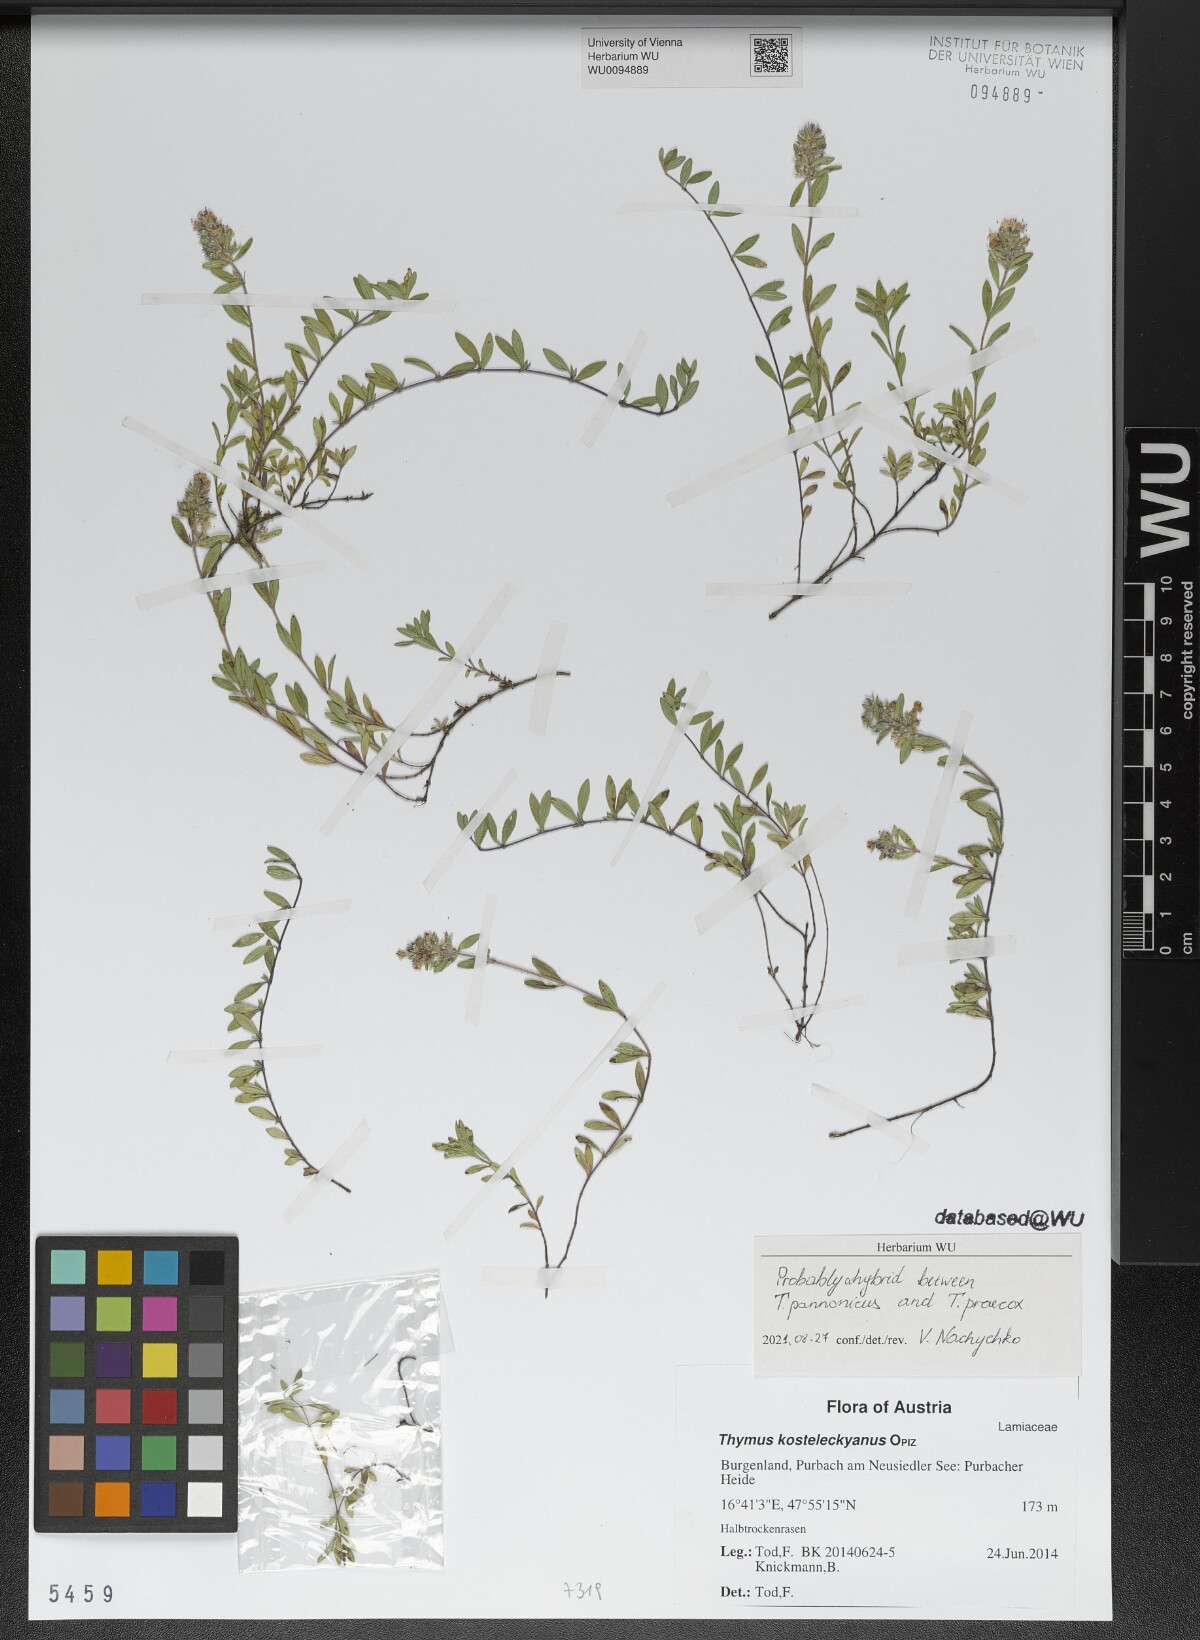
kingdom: Plantae
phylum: Tracheophyta
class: Magnoliopsida
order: Lamiales
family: Lamiaceae
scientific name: Lamiaceae
